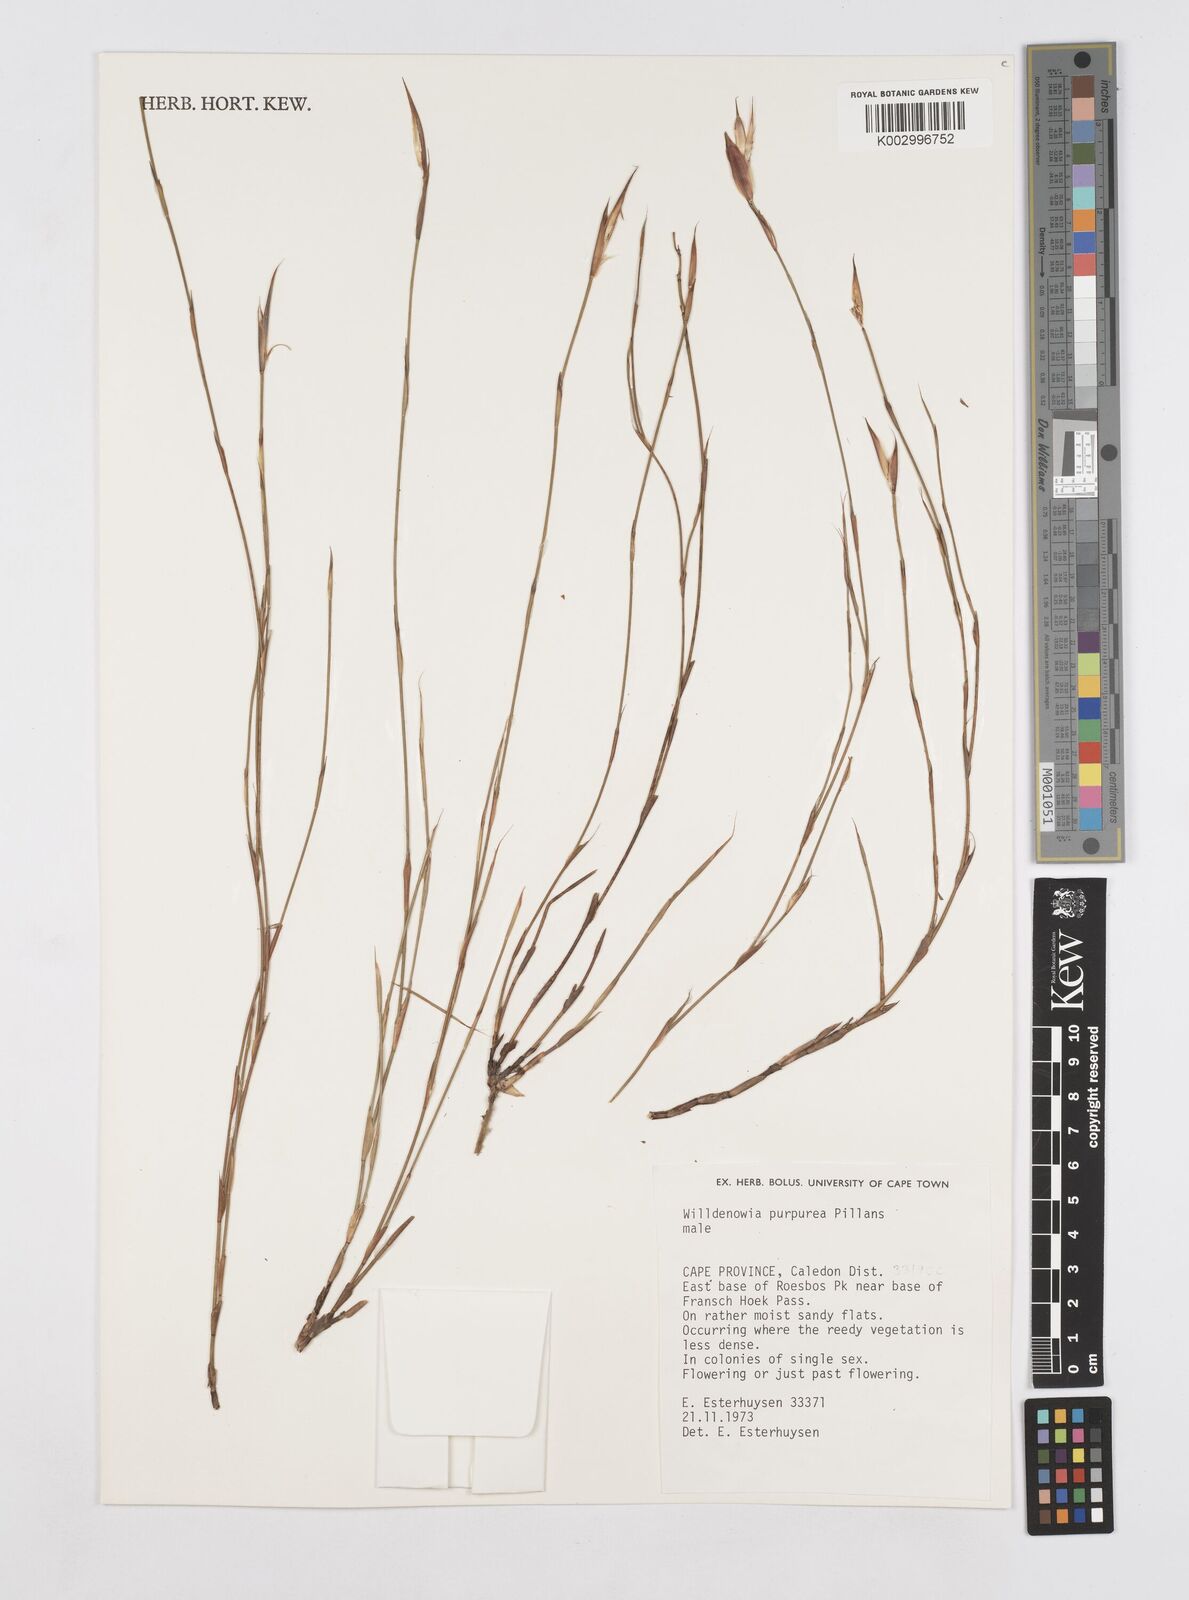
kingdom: Plantae
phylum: Tracheophyta
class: Liliopsida
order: Poales
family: Restionaceae
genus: Willdenowia
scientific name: Willdenowia purpurea
